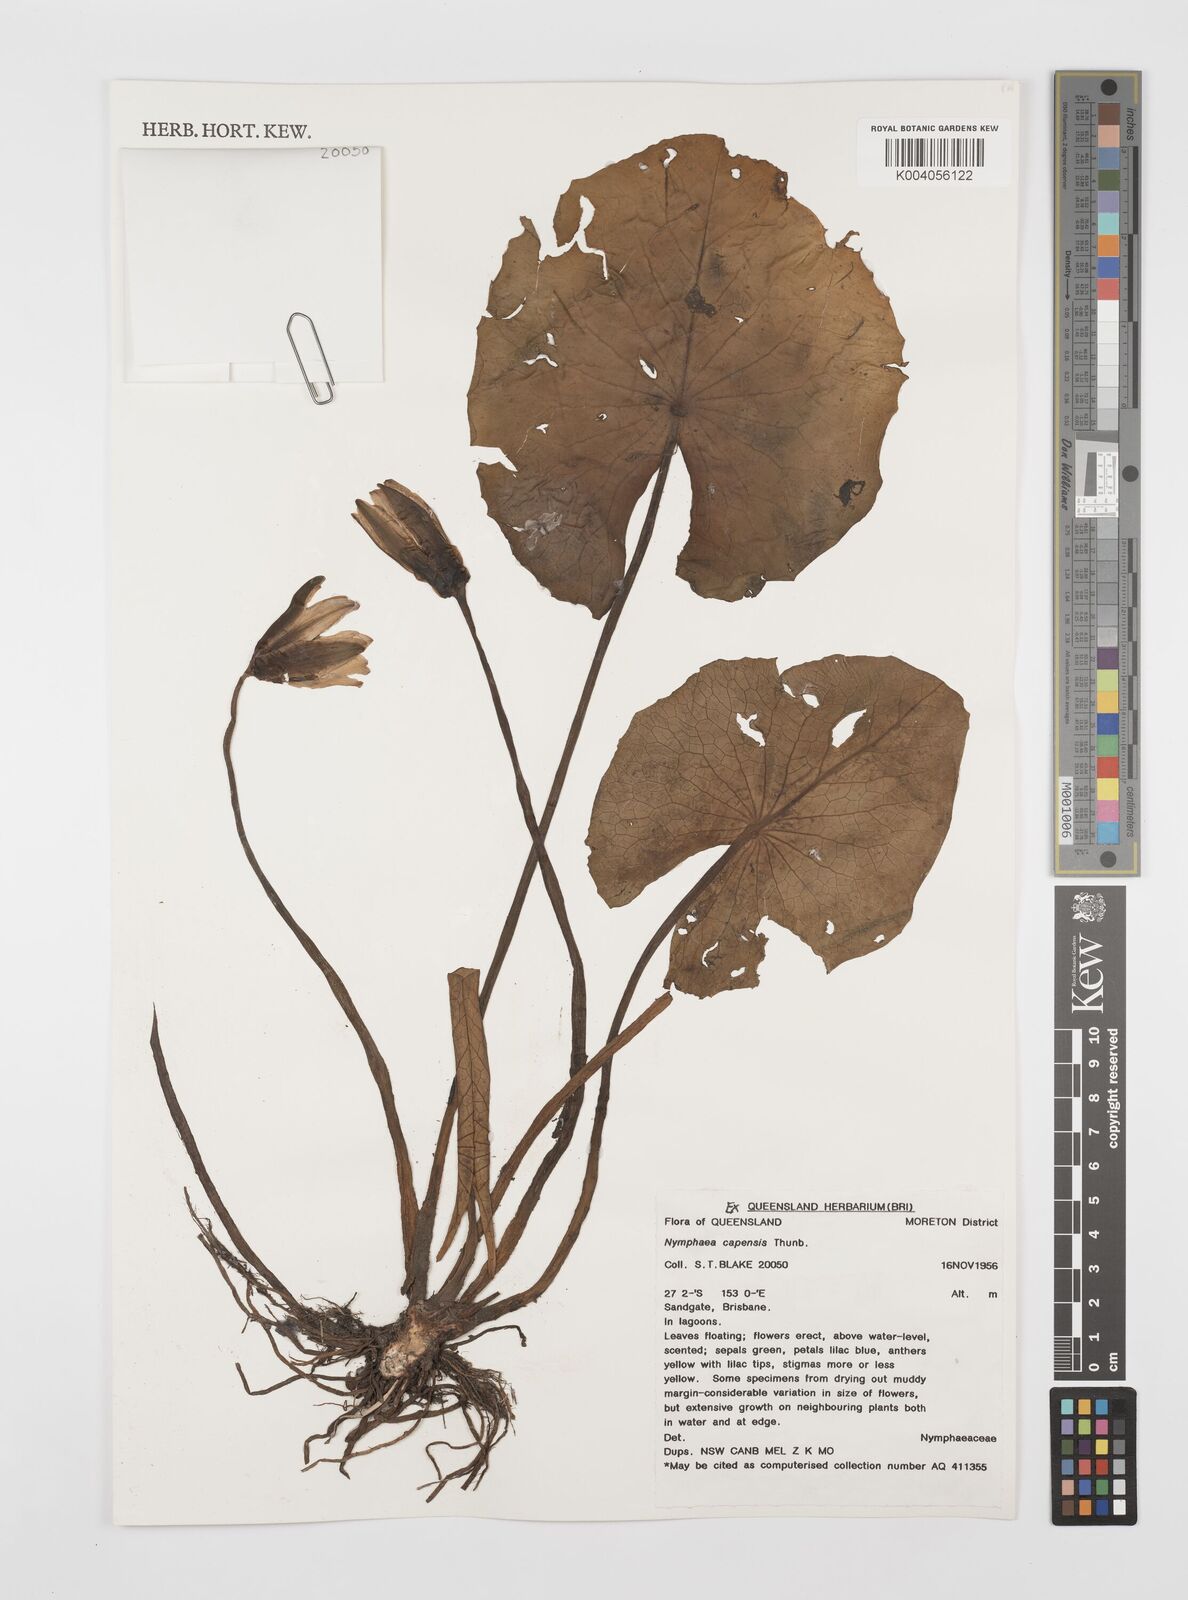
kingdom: Plantae
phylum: Tracheophyta
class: Magnoliopsida
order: Nymphaeales
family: Nymphaeaceae
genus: Nymphaea
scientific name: Nymphaea nouchali
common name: Blue lotus
